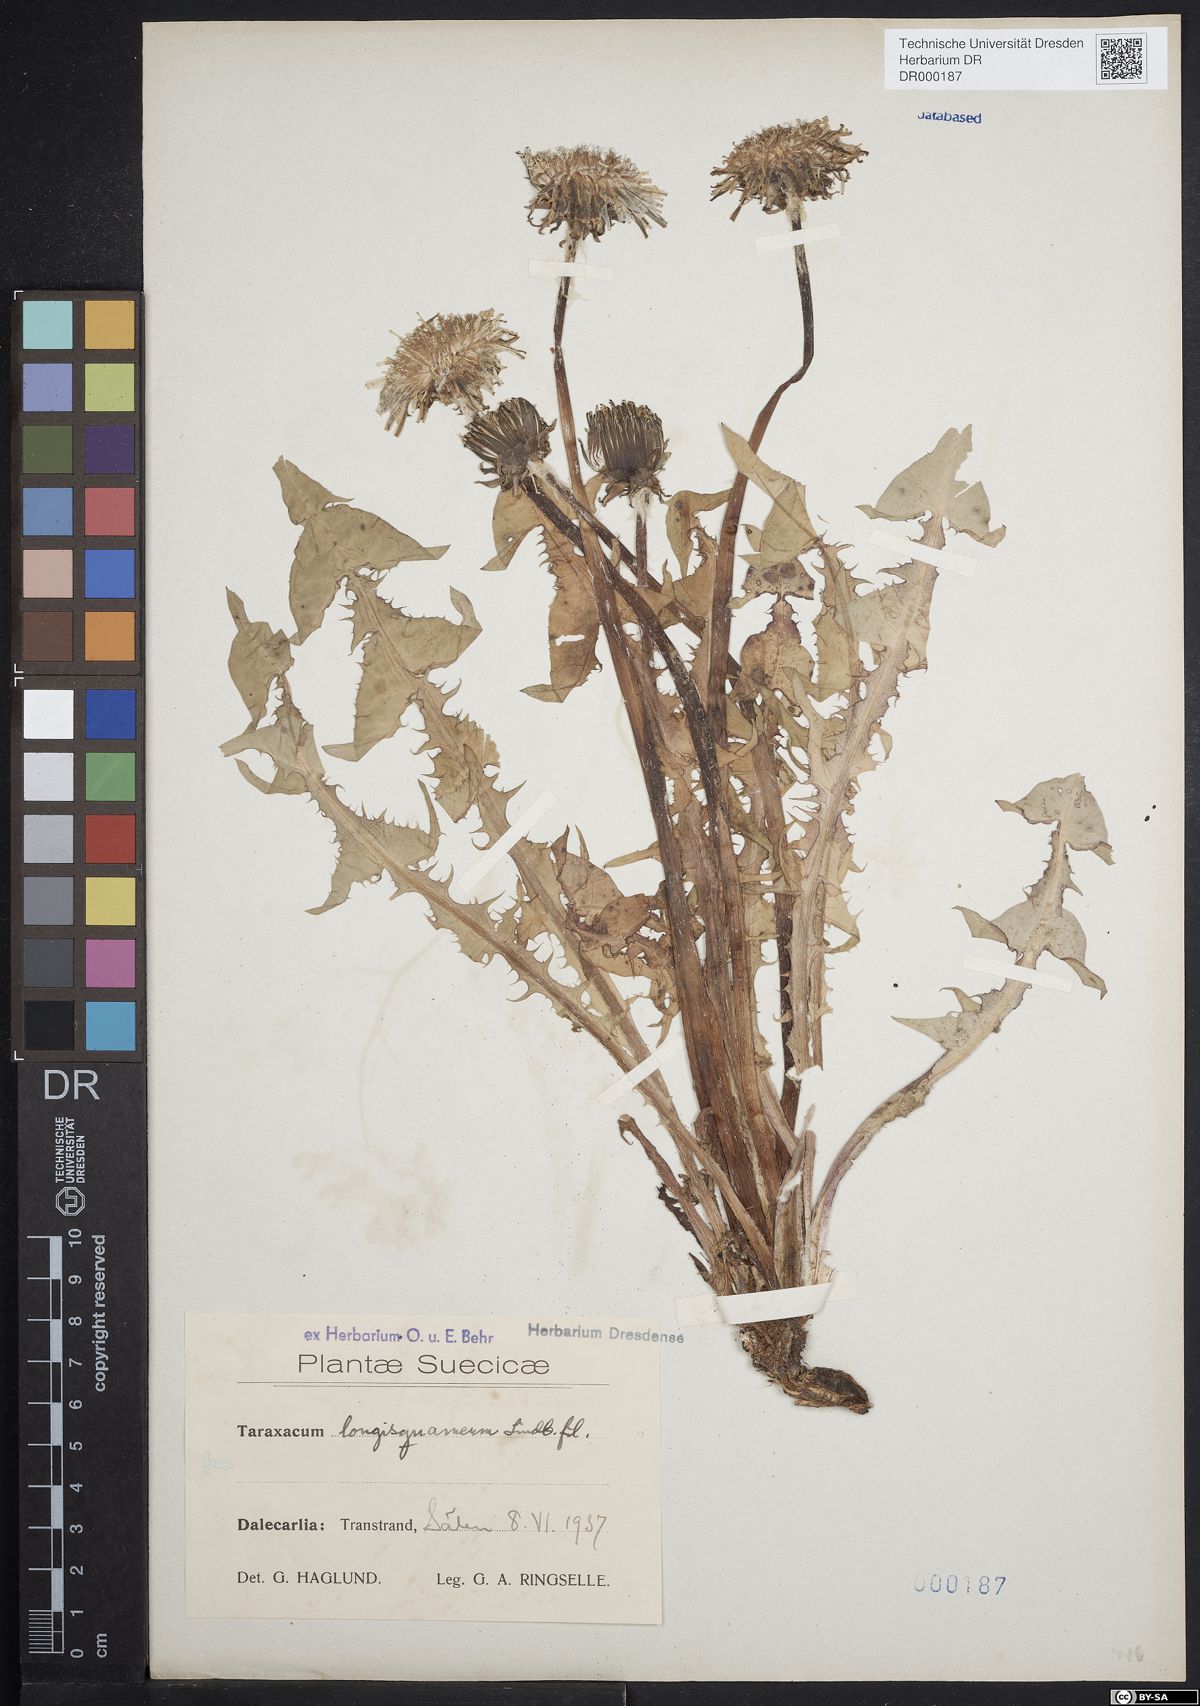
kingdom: Plantae
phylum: Tracheophyta
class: Magnoliopsida
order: Asterales
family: Asteraceae
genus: Taraxacum
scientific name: Taraxacum longisquameum
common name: Elongate-bracted dandelion
